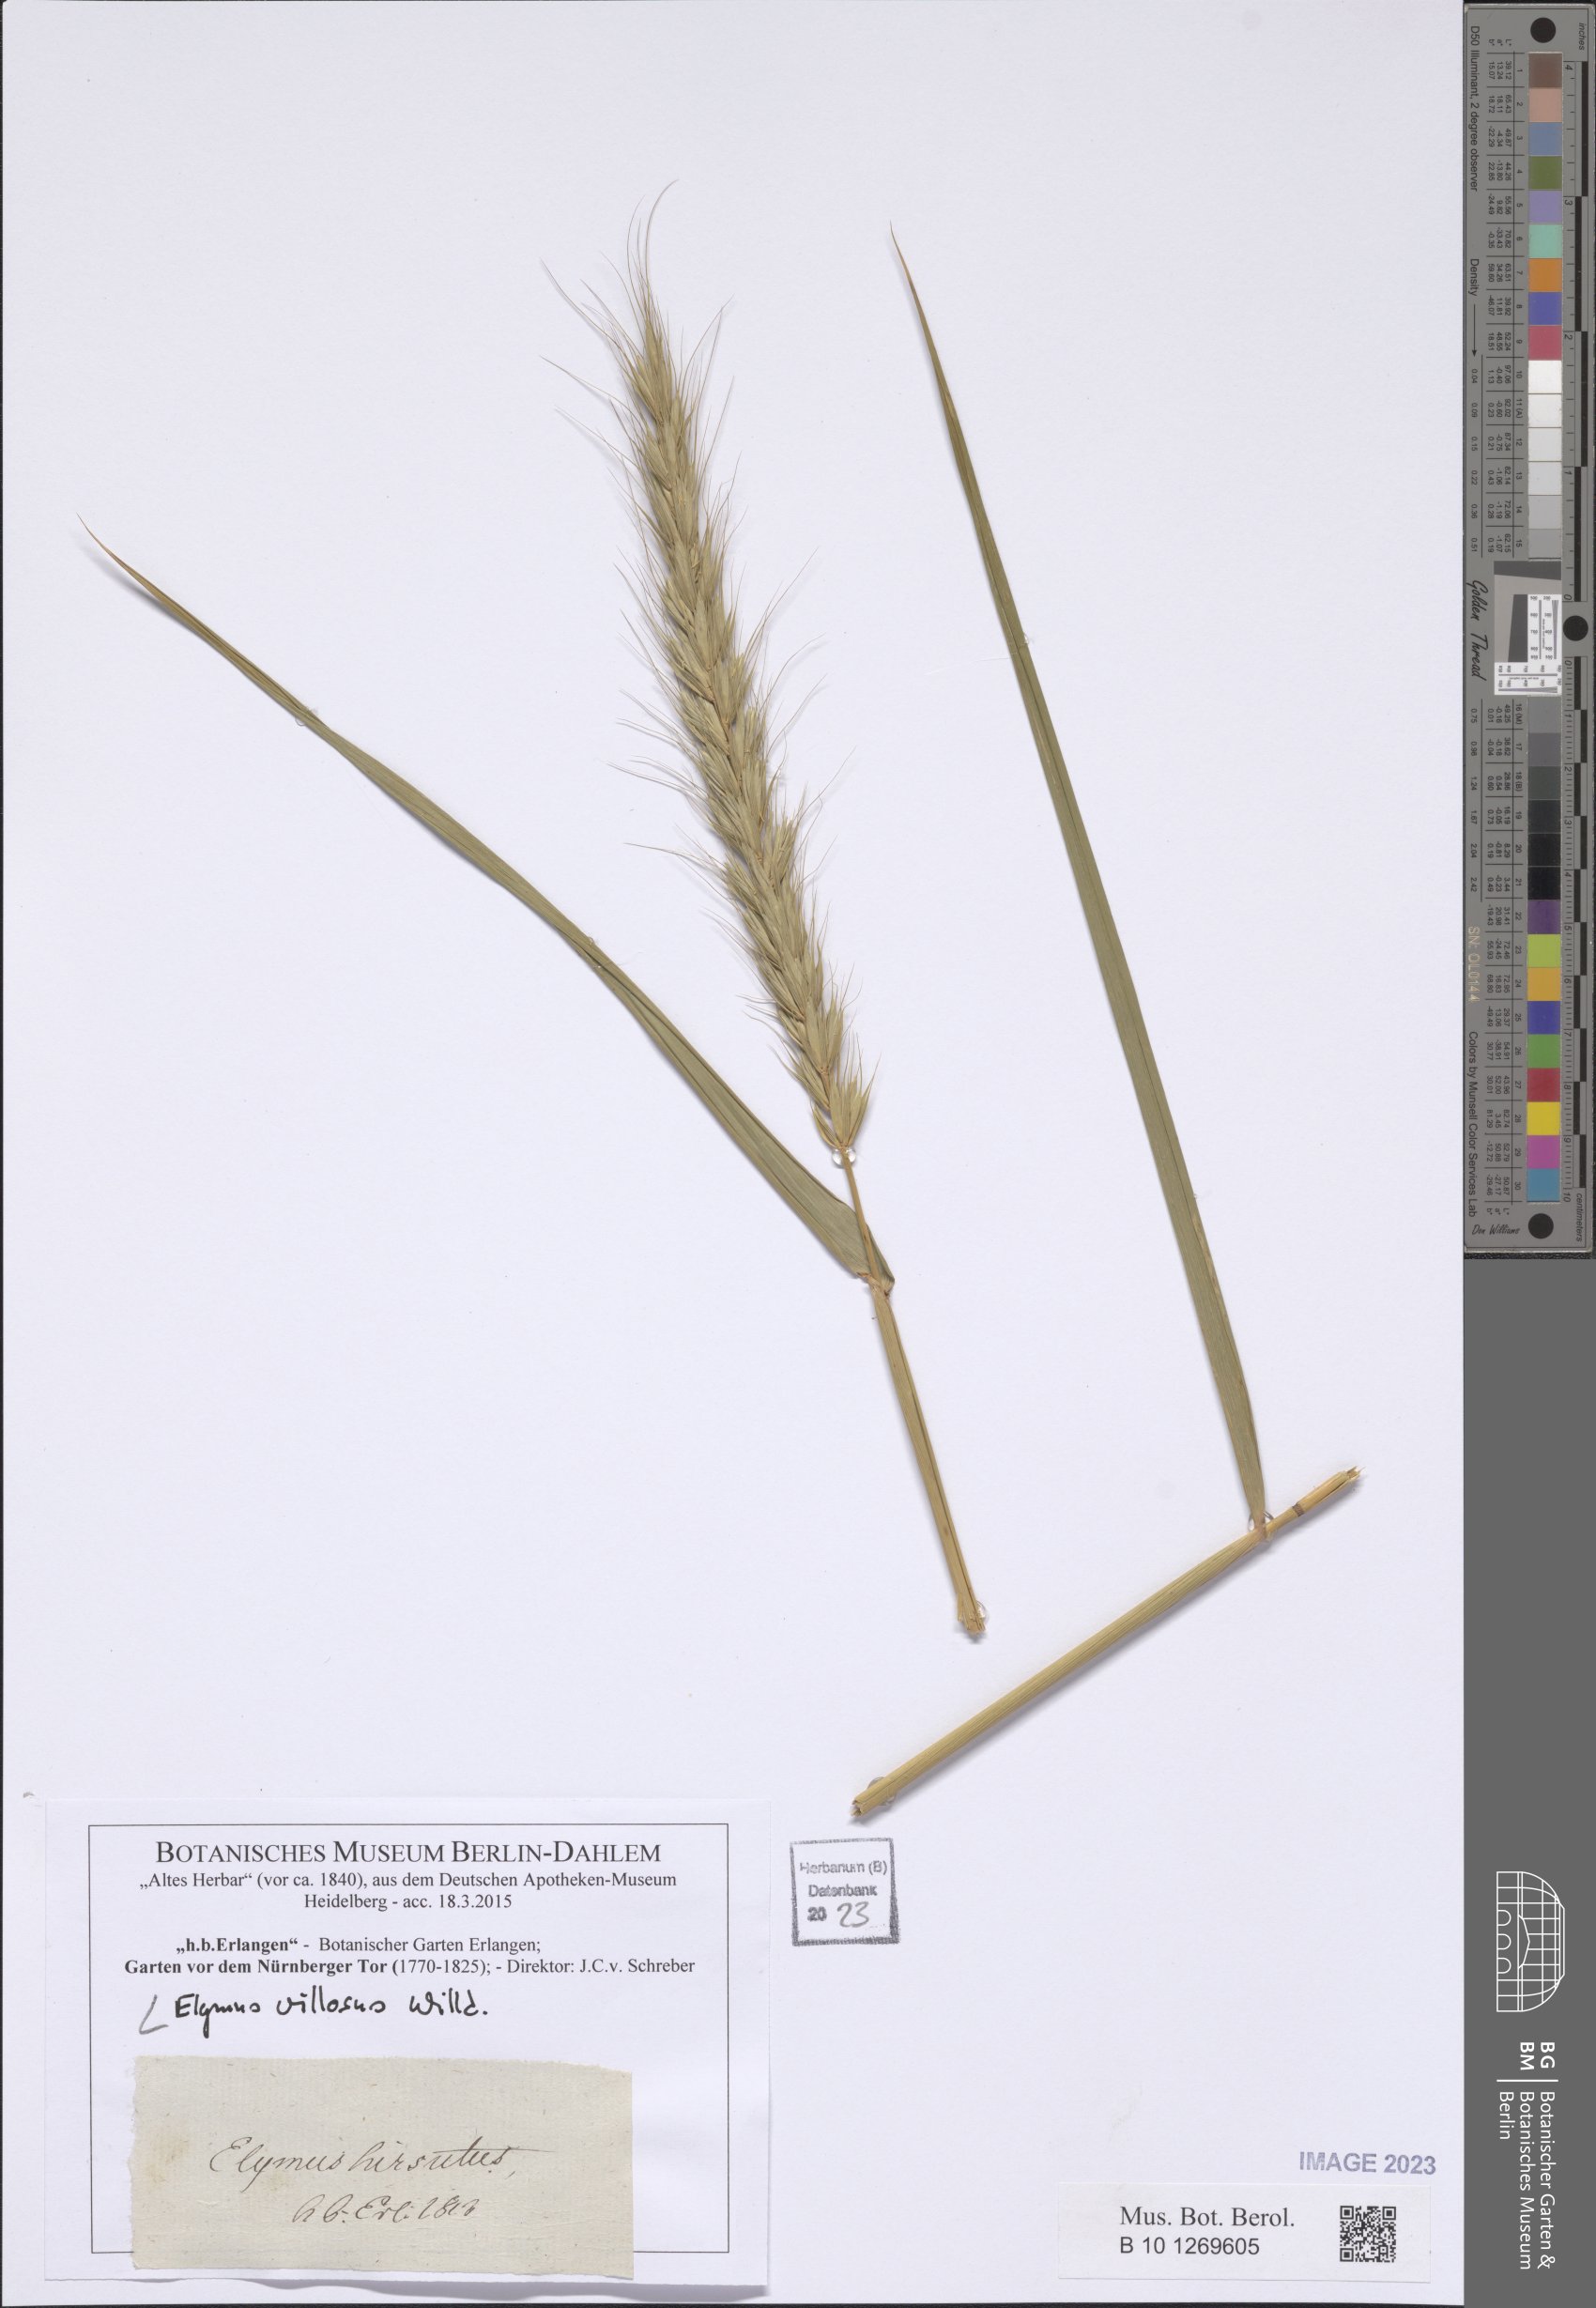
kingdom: Plantae
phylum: Tracheophyta
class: Liliopsida
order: Poales
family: Poaceae
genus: Elymus
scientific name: Elymus villosus
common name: Downy wild rye
